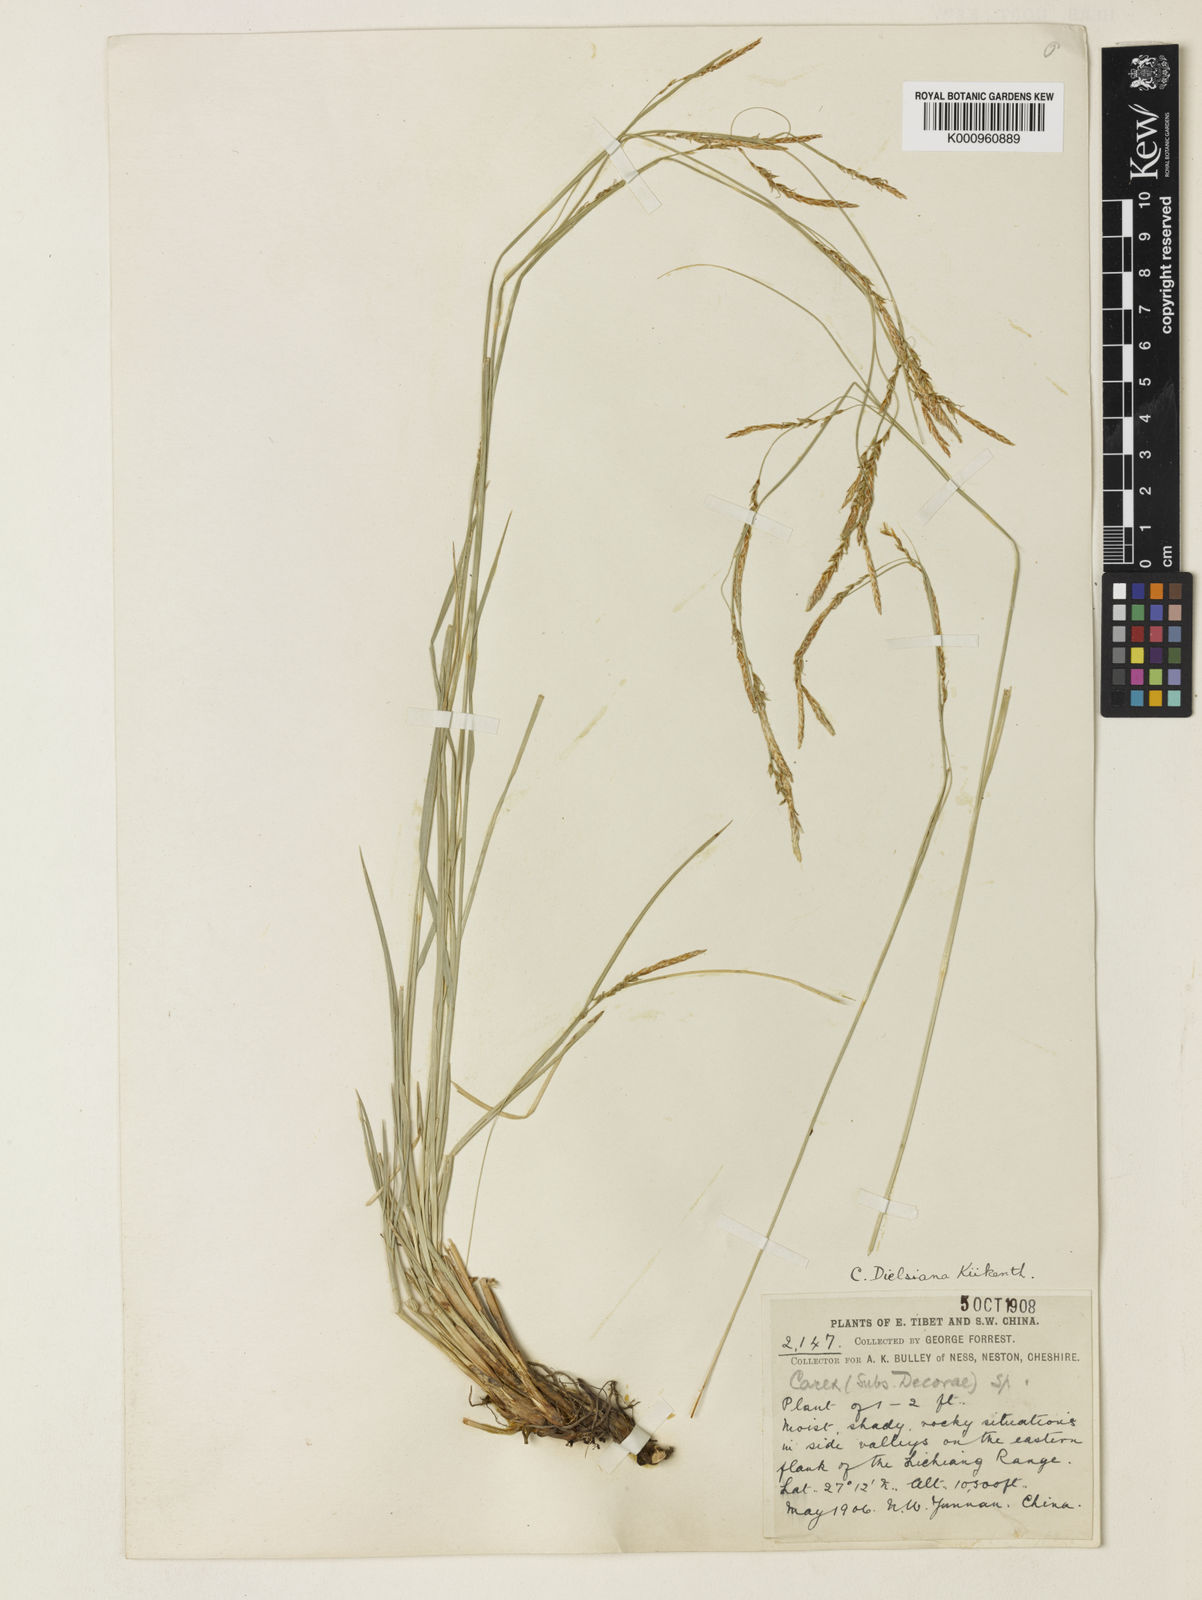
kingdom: Plantae
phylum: Tracheophyta
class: Liliopsida
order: Poales
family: Cyperaceae
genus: Carex
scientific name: Carex
